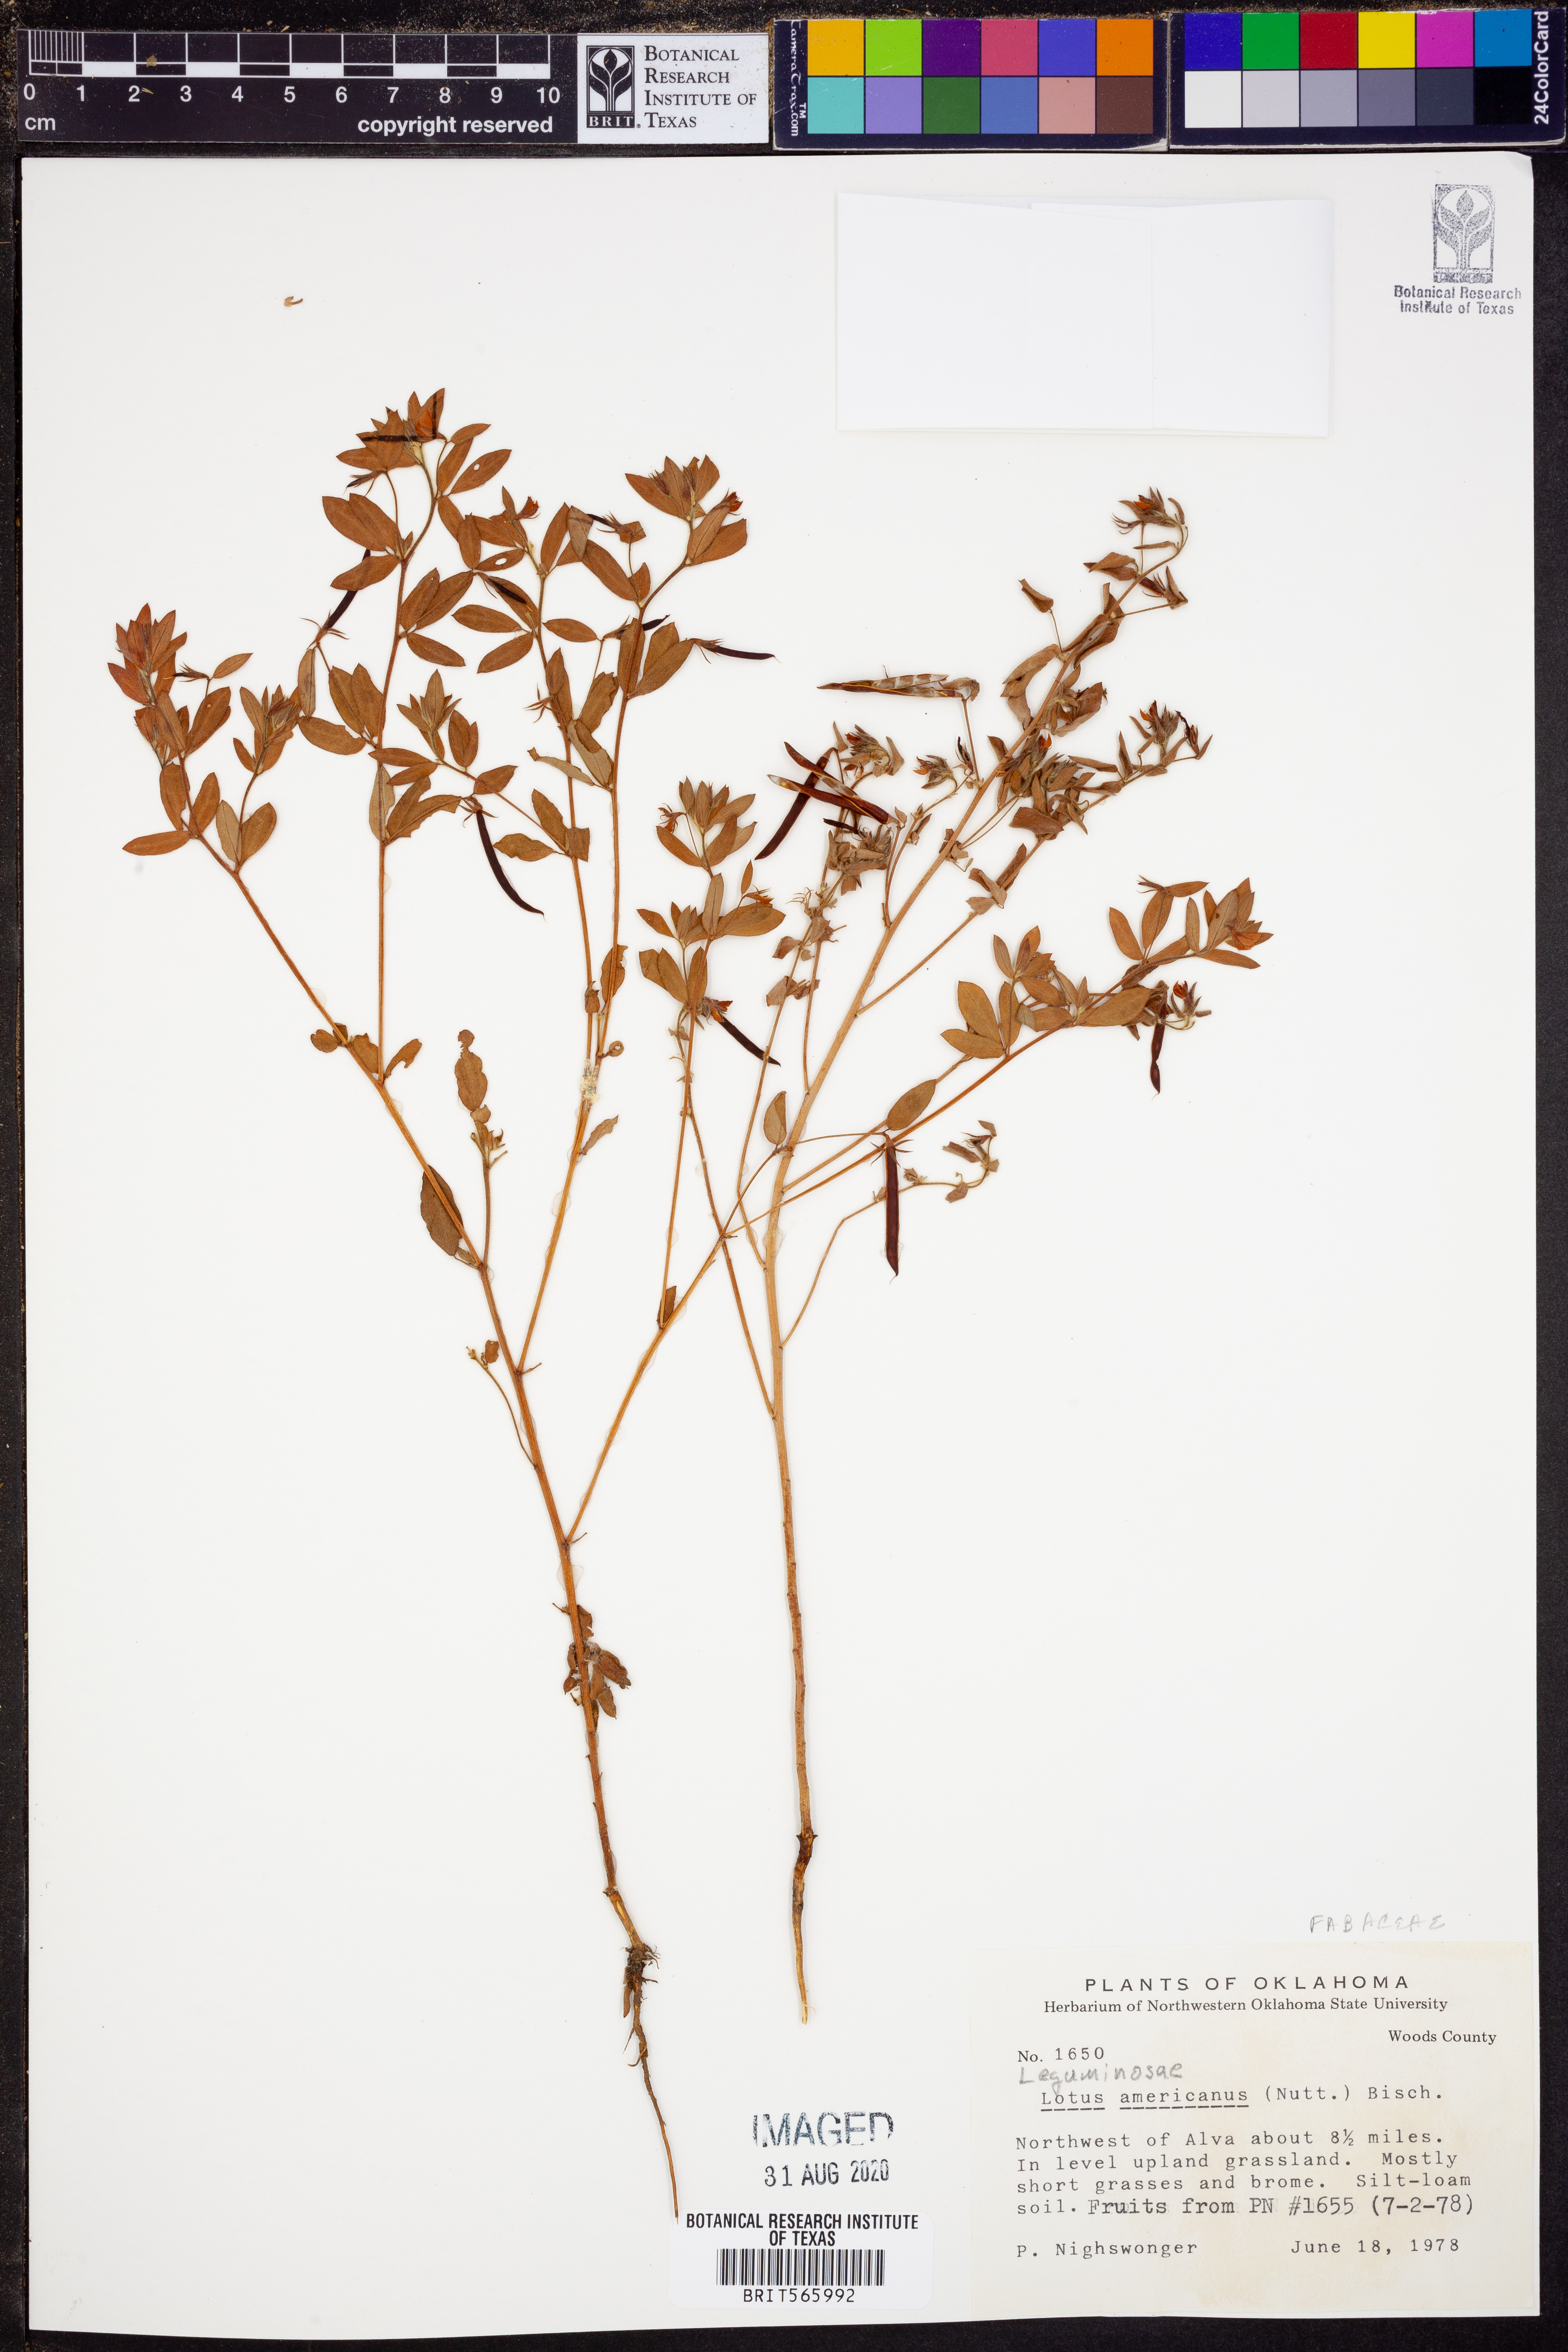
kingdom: Plantae
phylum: Tracheophyta
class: Magnoliopsida
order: Fabales
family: Fabaceae
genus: Acmispon
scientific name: Acmispon americanus
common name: American bird's-foot trefoil
